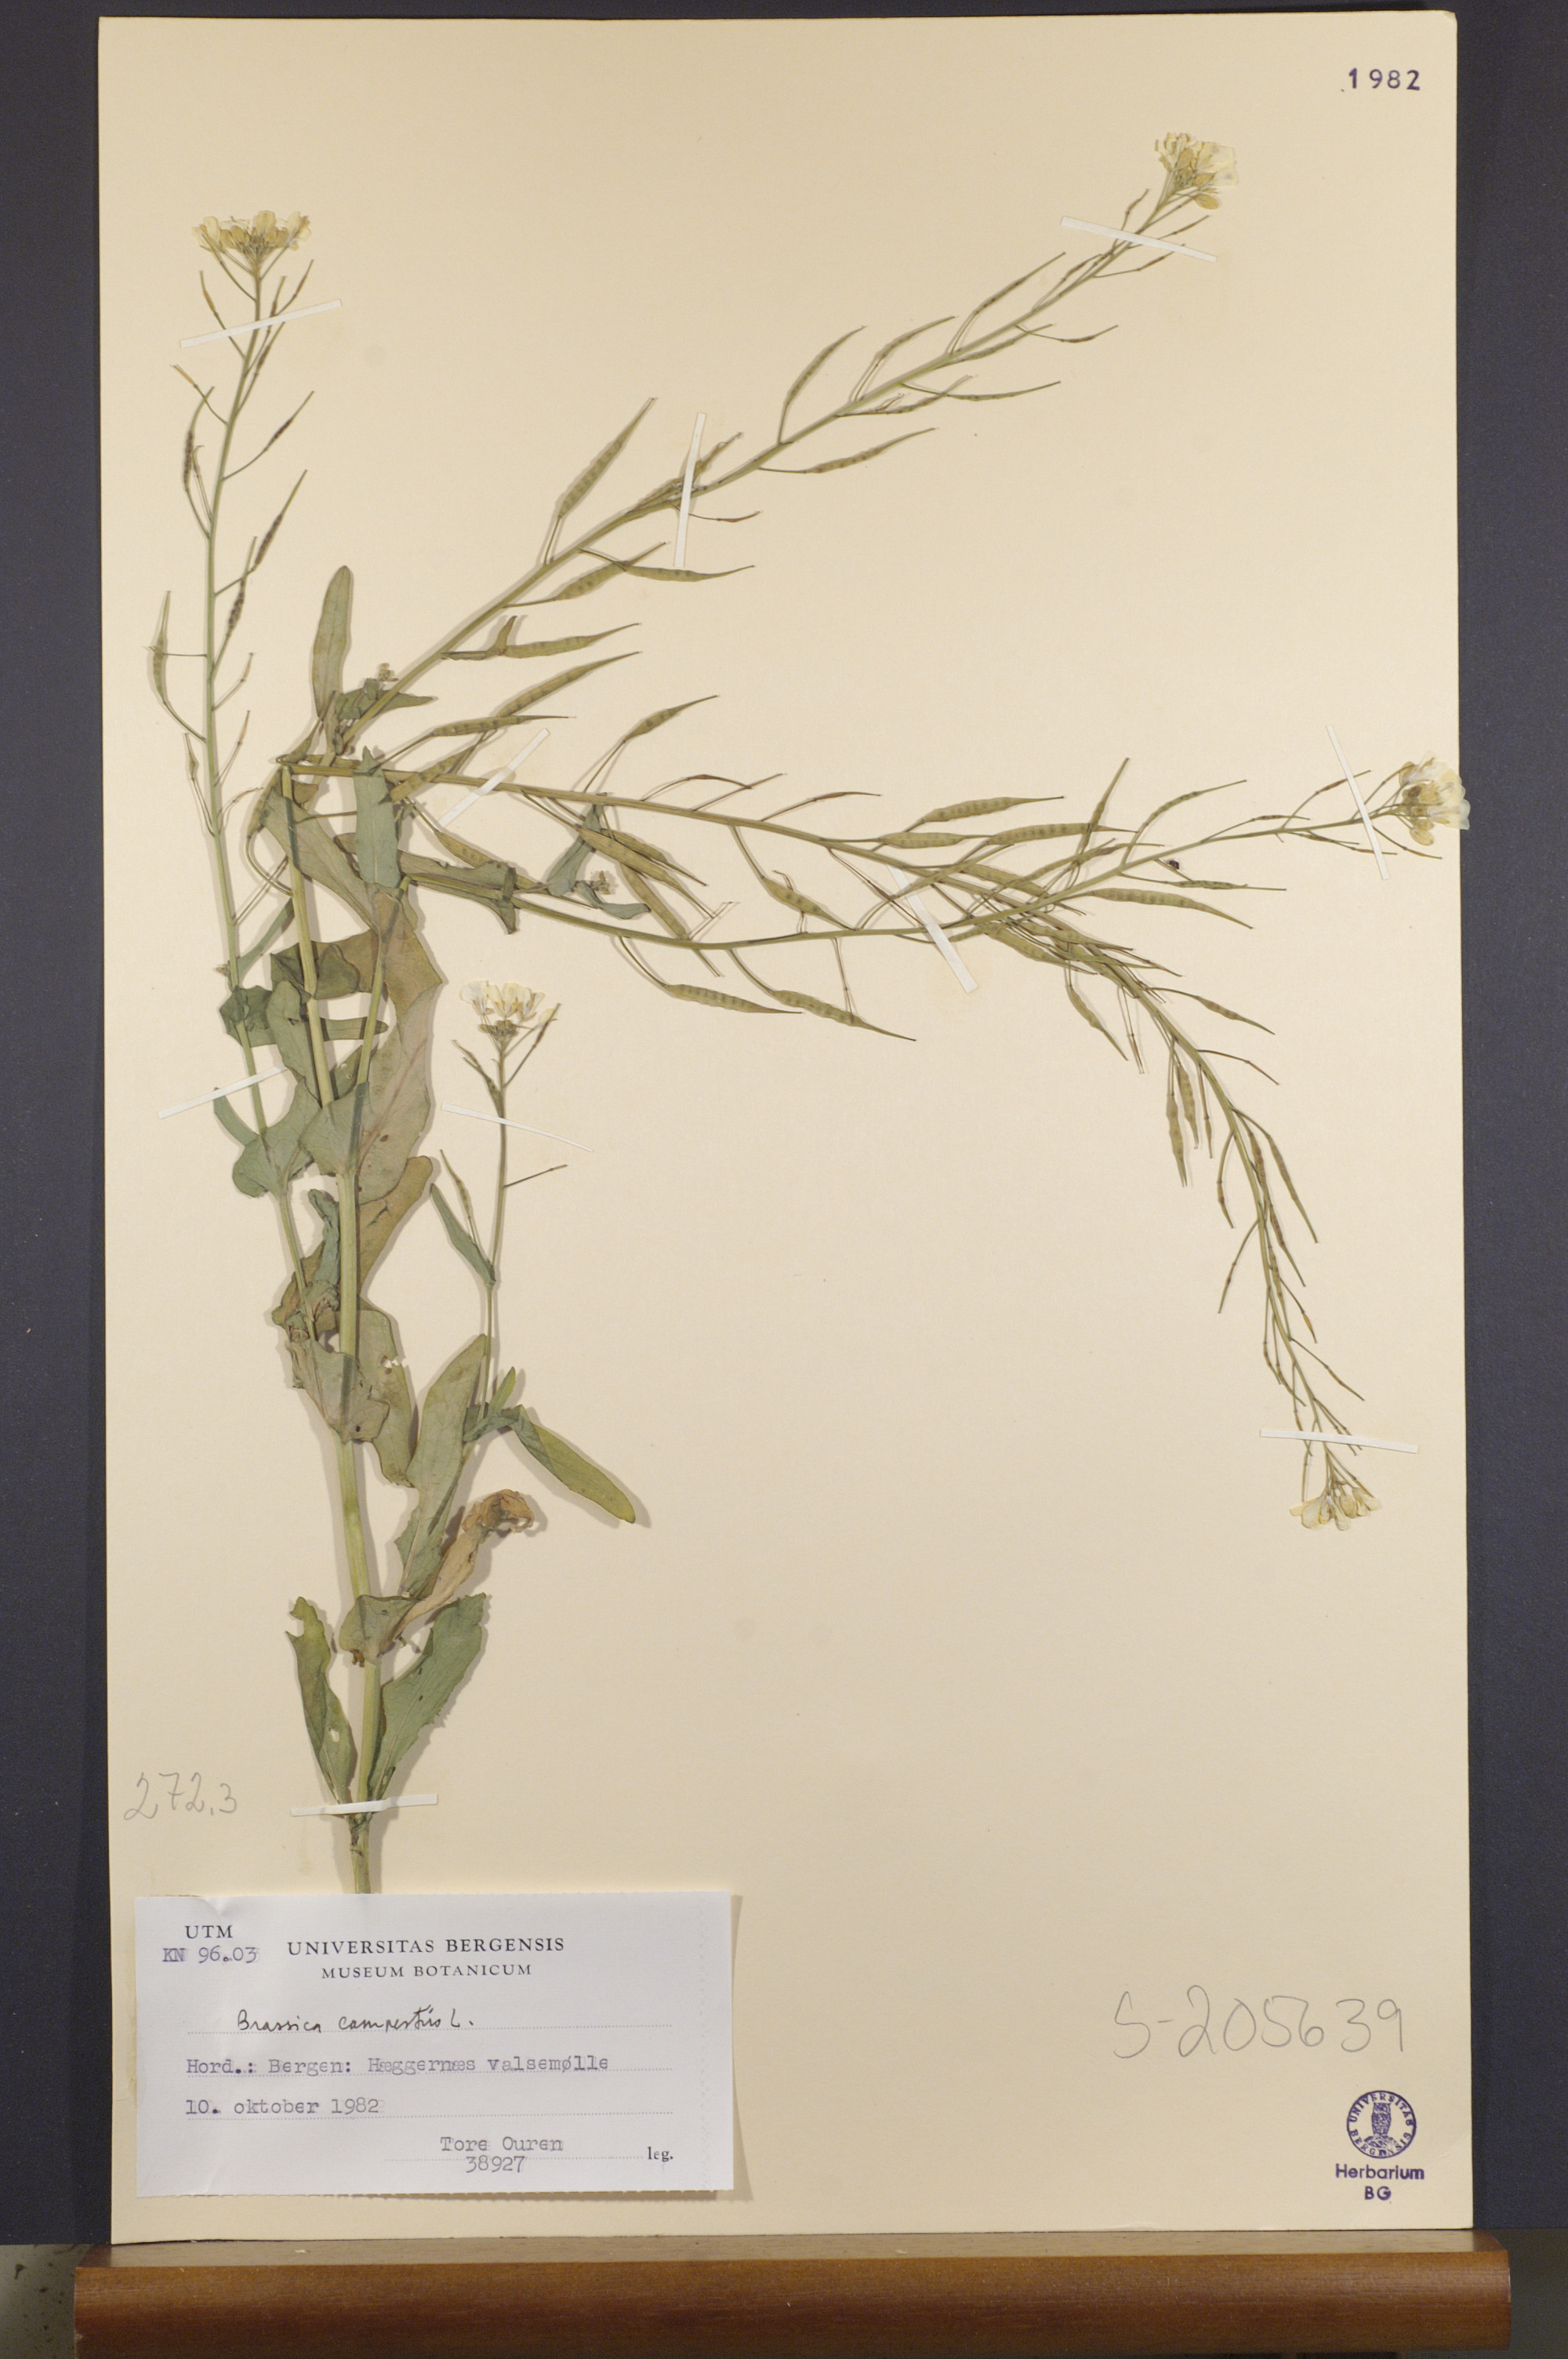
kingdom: Plantae
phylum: Tracheophyta
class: Magnoliopsida
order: Brassicales
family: Brassicaceae
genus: Brassica
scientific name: Brassica rapa
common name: Field mustard
